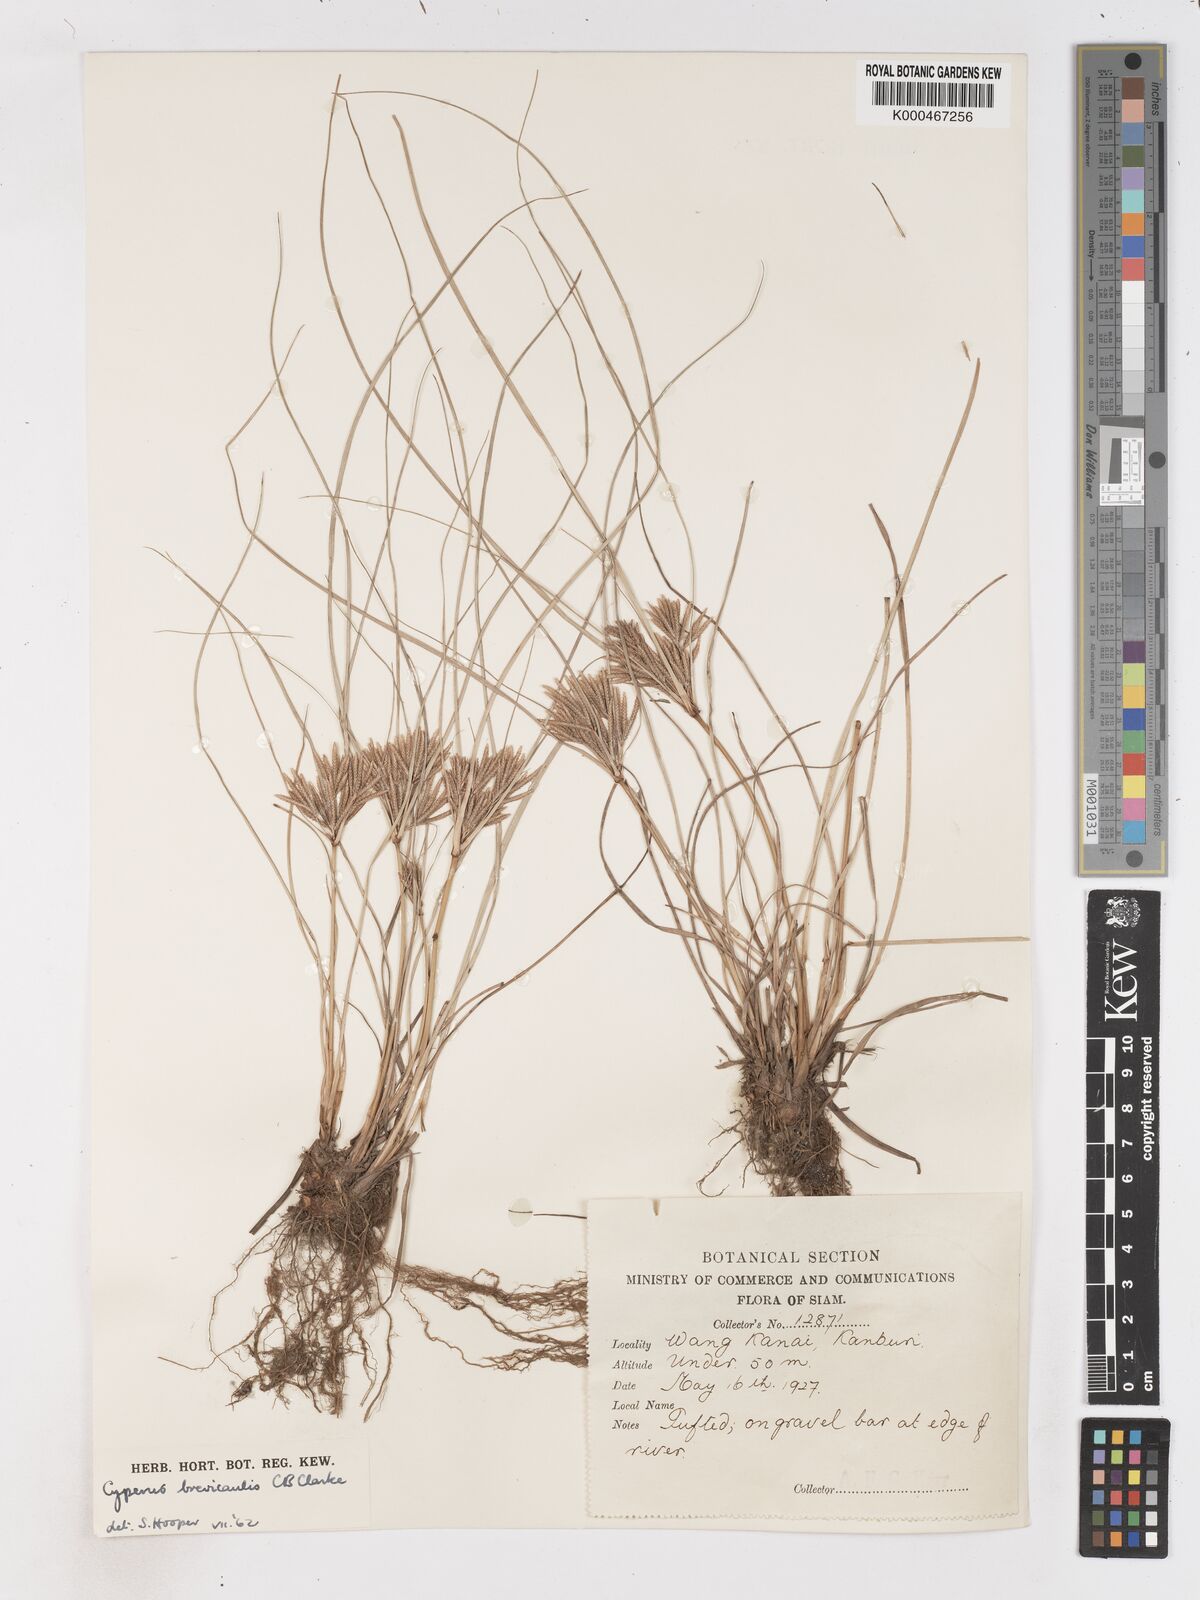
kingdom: Plantae
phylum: Tracheophyta
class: Liliopsida
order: Poales
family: Cyperaceae
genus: Cyperus
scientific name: Cyperus tonkinensis
